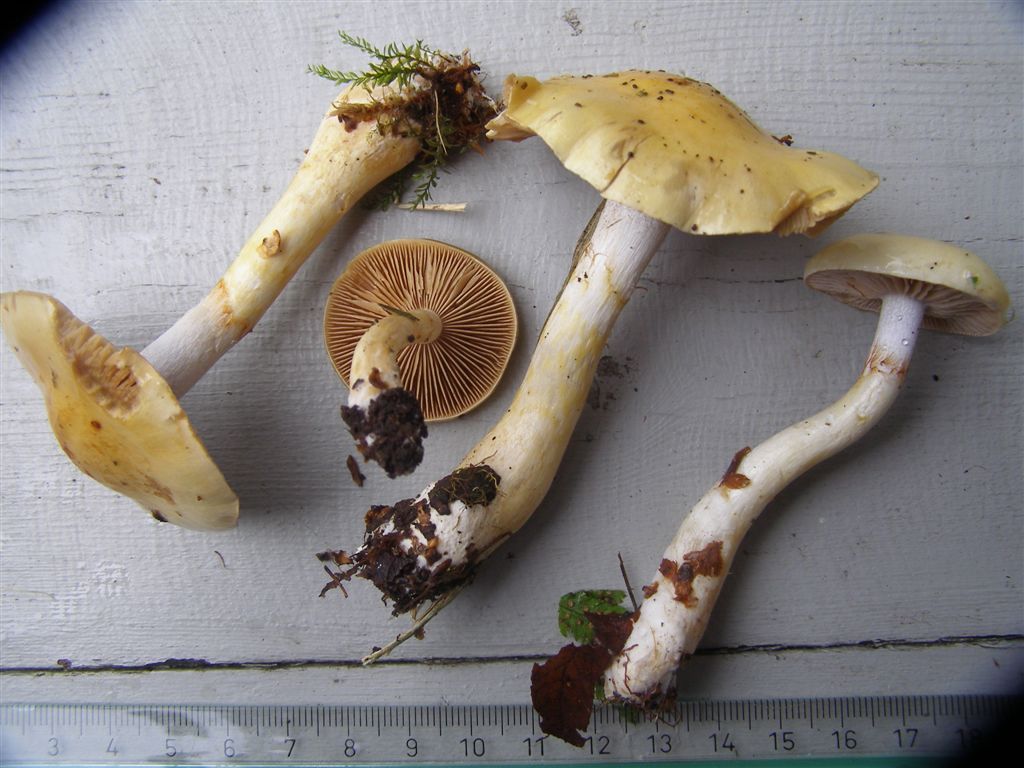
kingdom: Fungi
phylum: Basidiomycota
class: Agaricomycetes
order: Agaricales
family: Cortinariaceae
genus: Cortinarius
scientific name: Cortinarius delibutus
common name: gul slørhat
